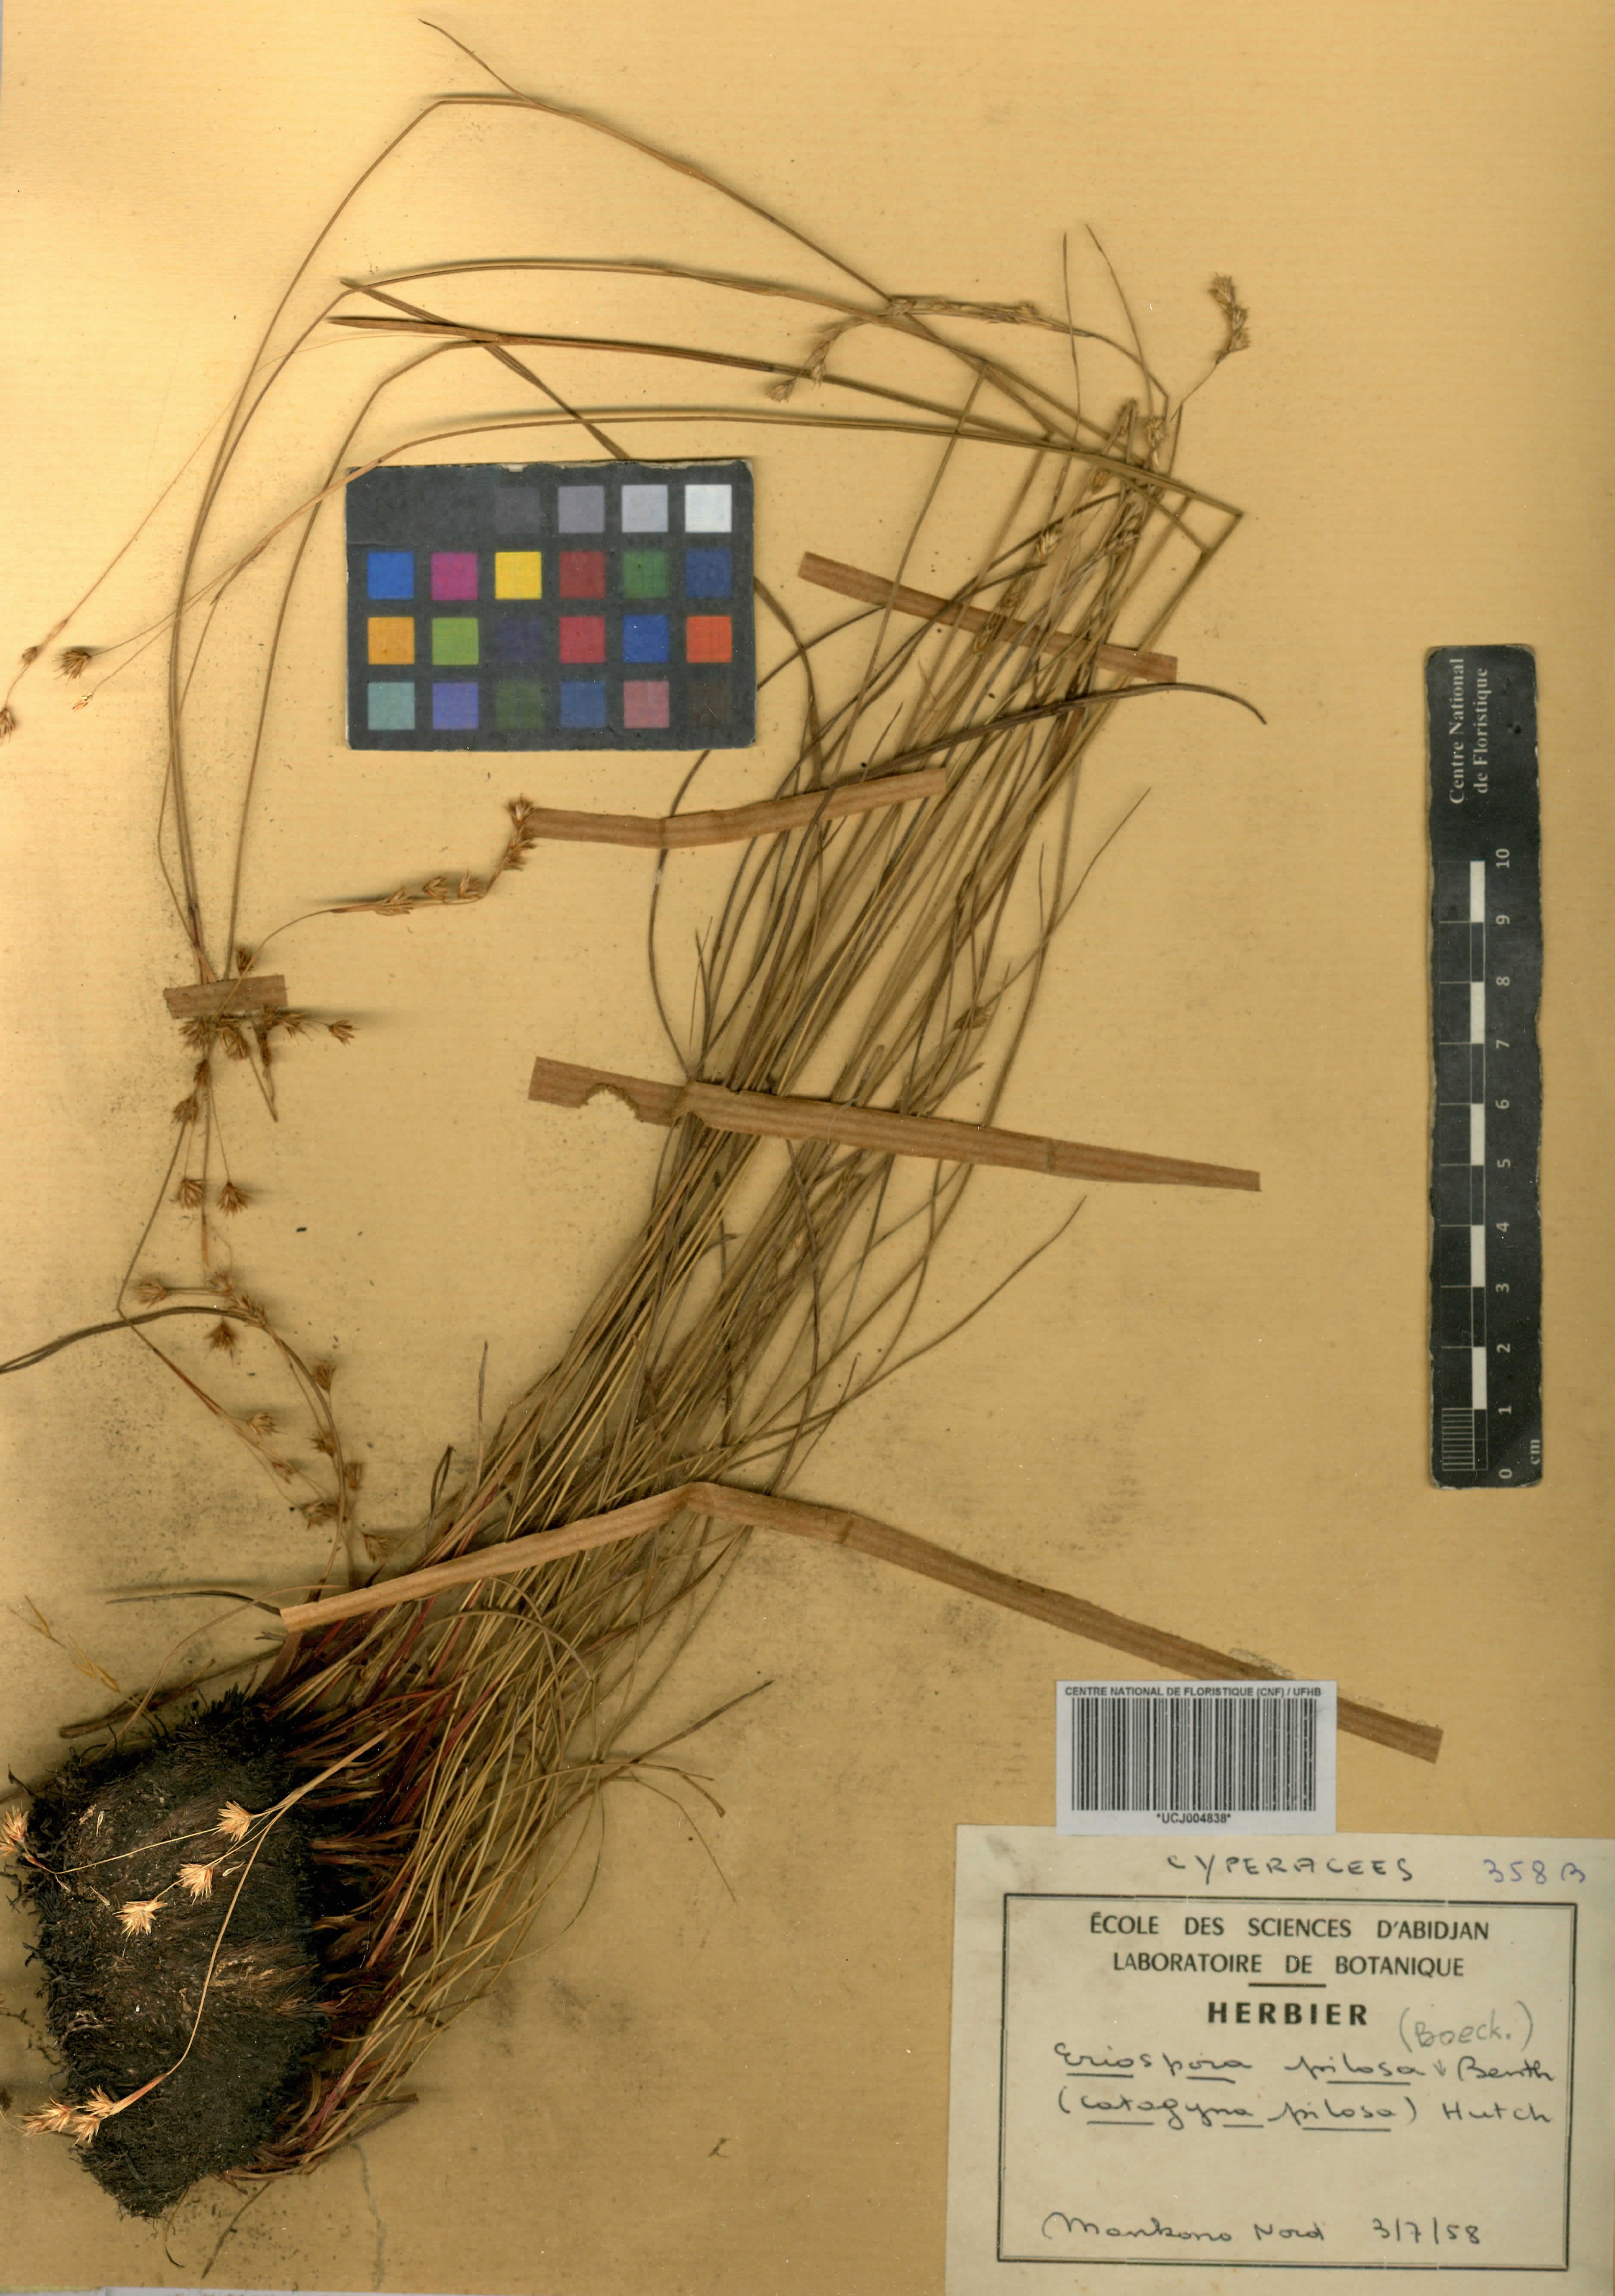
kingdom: Plantae
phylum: Tracheophyta
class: Liliopsida
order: Poales
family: Cyperaceae
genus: Afrotrilepis
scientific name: Afrotrilepis pilosa
